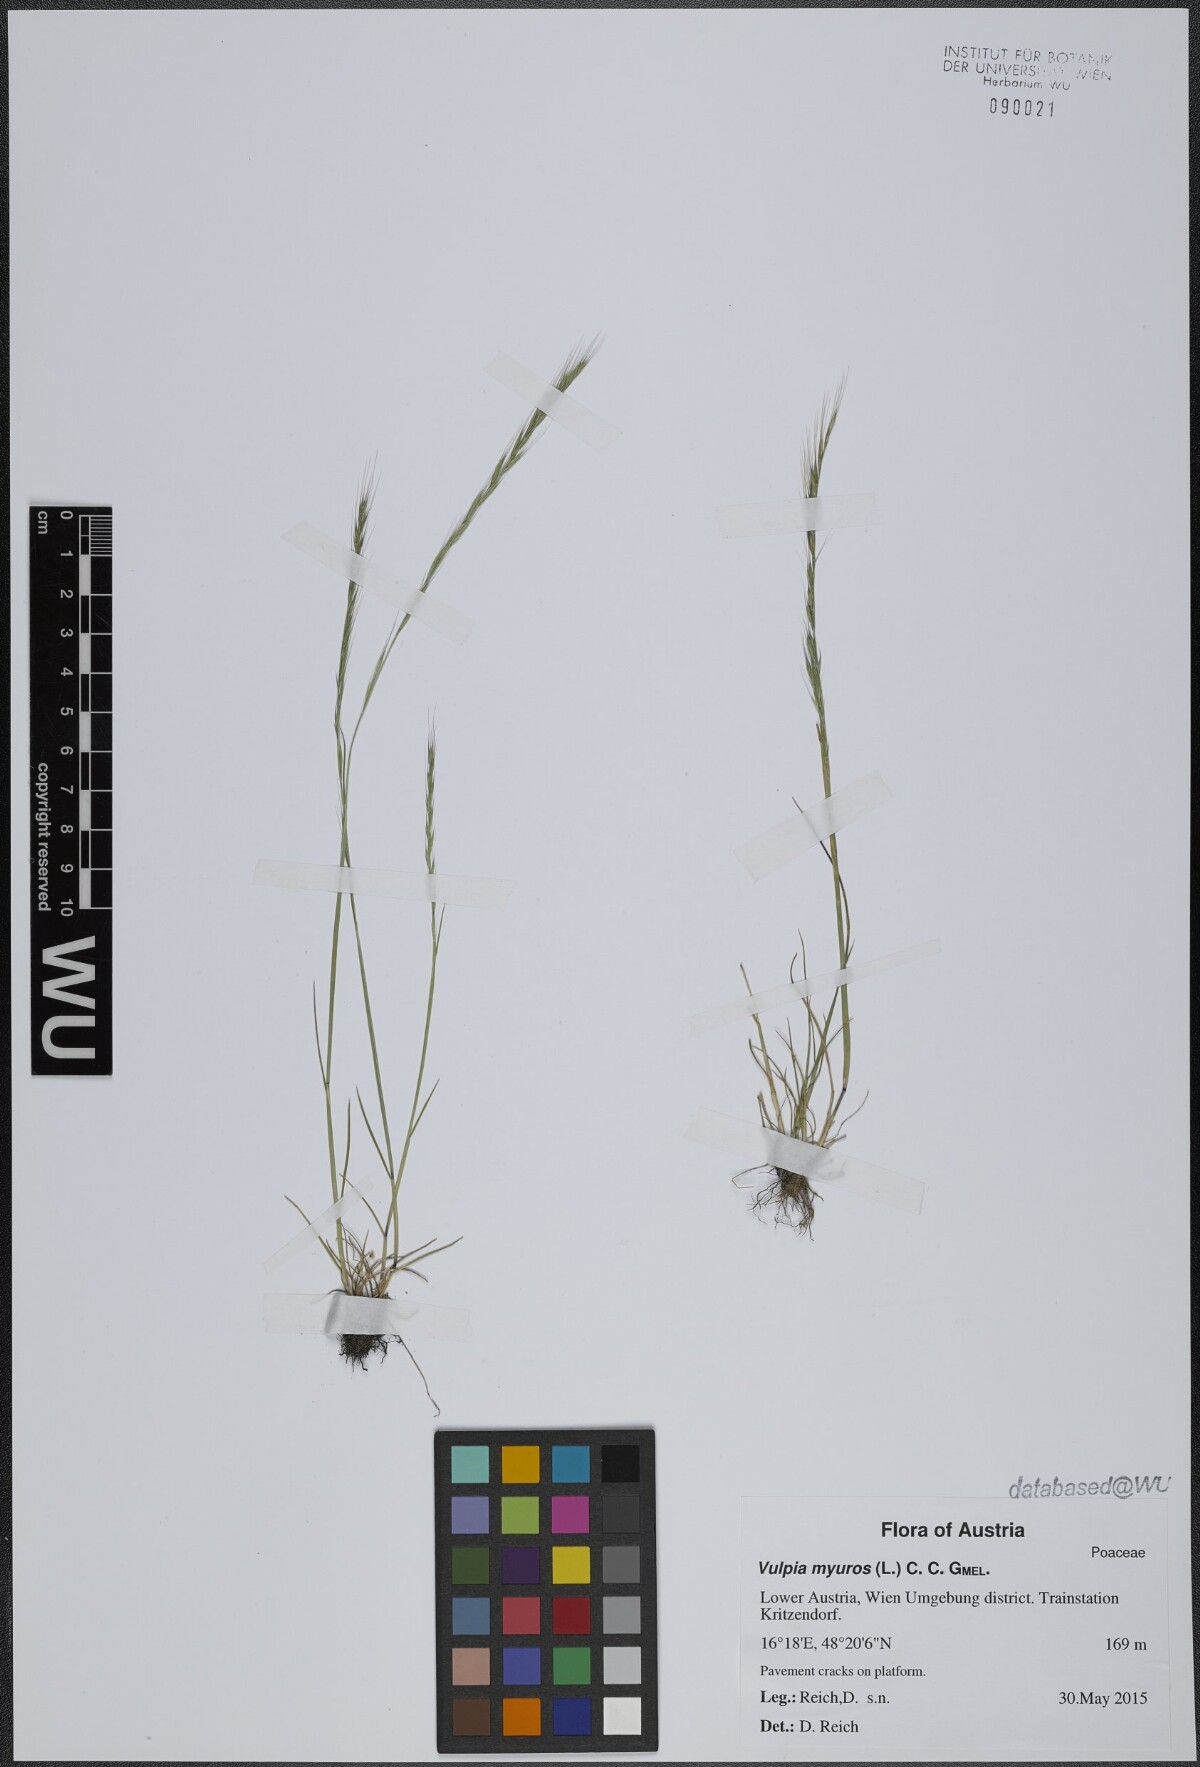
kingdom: Plantae
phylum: Tracheophyta
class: Liliopsida
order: Poales
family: Poaceae
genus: Festuca
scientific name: Festuca myuros
